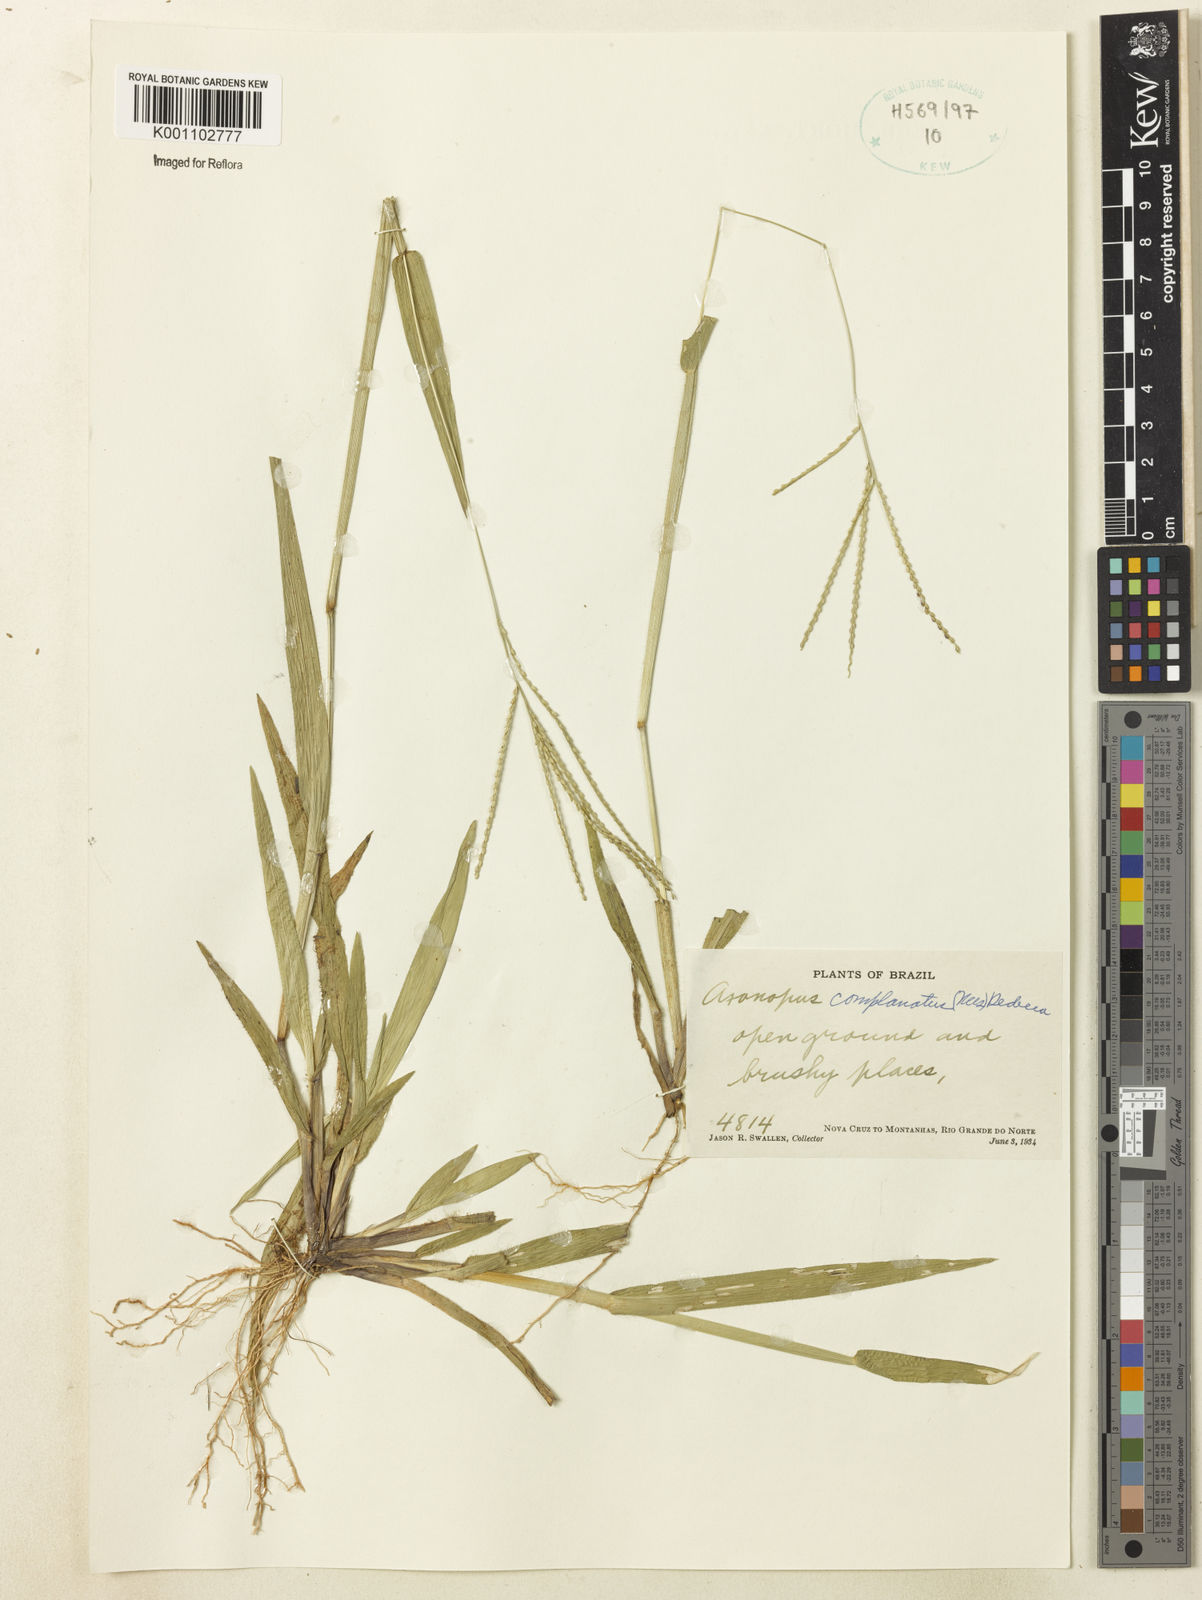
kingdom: Plantae
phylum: Tracheophyta
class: Liliopsida
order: Poales
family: Poaceae
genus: Axonopus
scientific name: Axonopus complanatus
